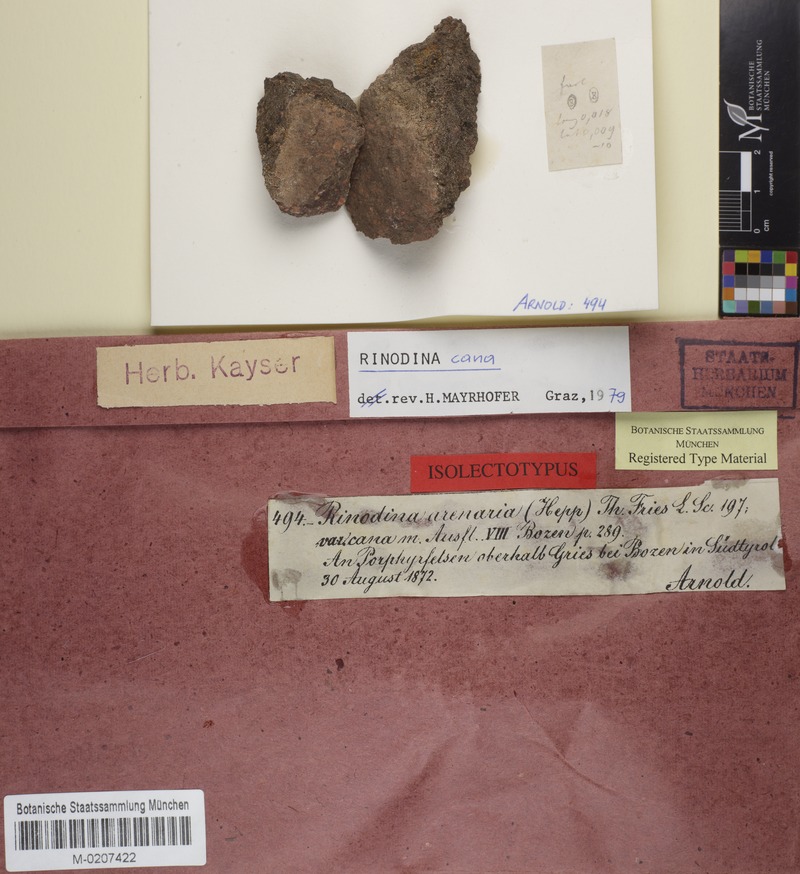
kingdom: Fungi
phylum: Ascomycota
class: Lecanoromycetes
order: Caliciales
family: Physciaceae
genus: Rinodina
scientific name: Rinodina cana
